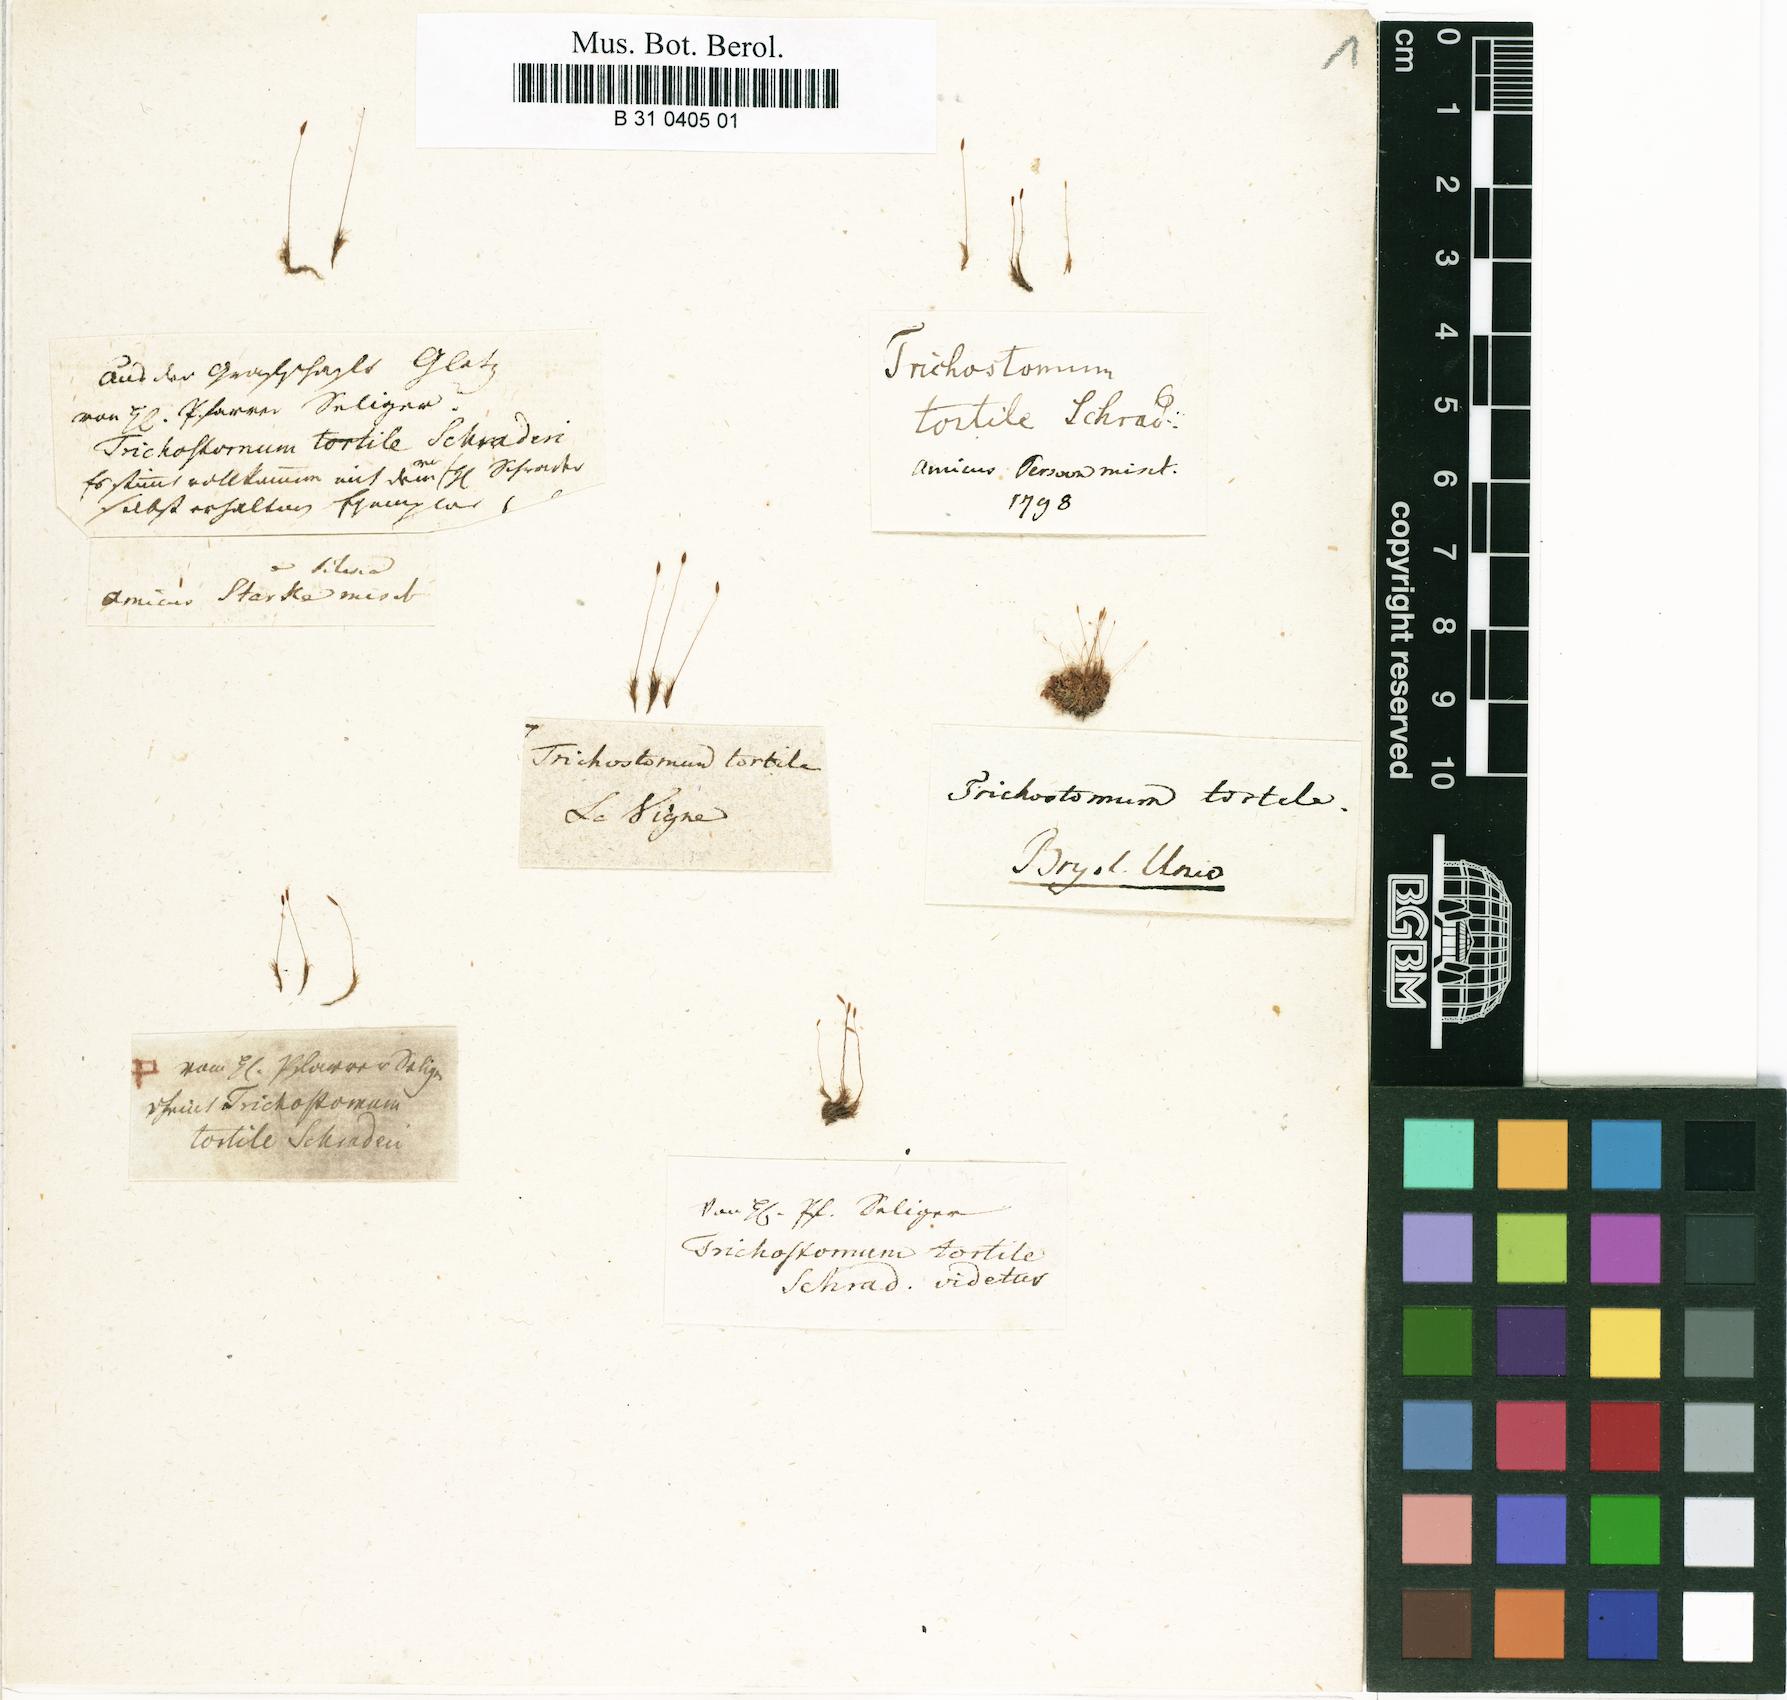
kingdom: Plantae
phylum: Bryophyta
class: Bryopsida
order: Dicranales
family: Ditrichaceae
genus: Ditrichum
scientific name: Ditrichum pusillum
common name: Brown cow-hair moss
